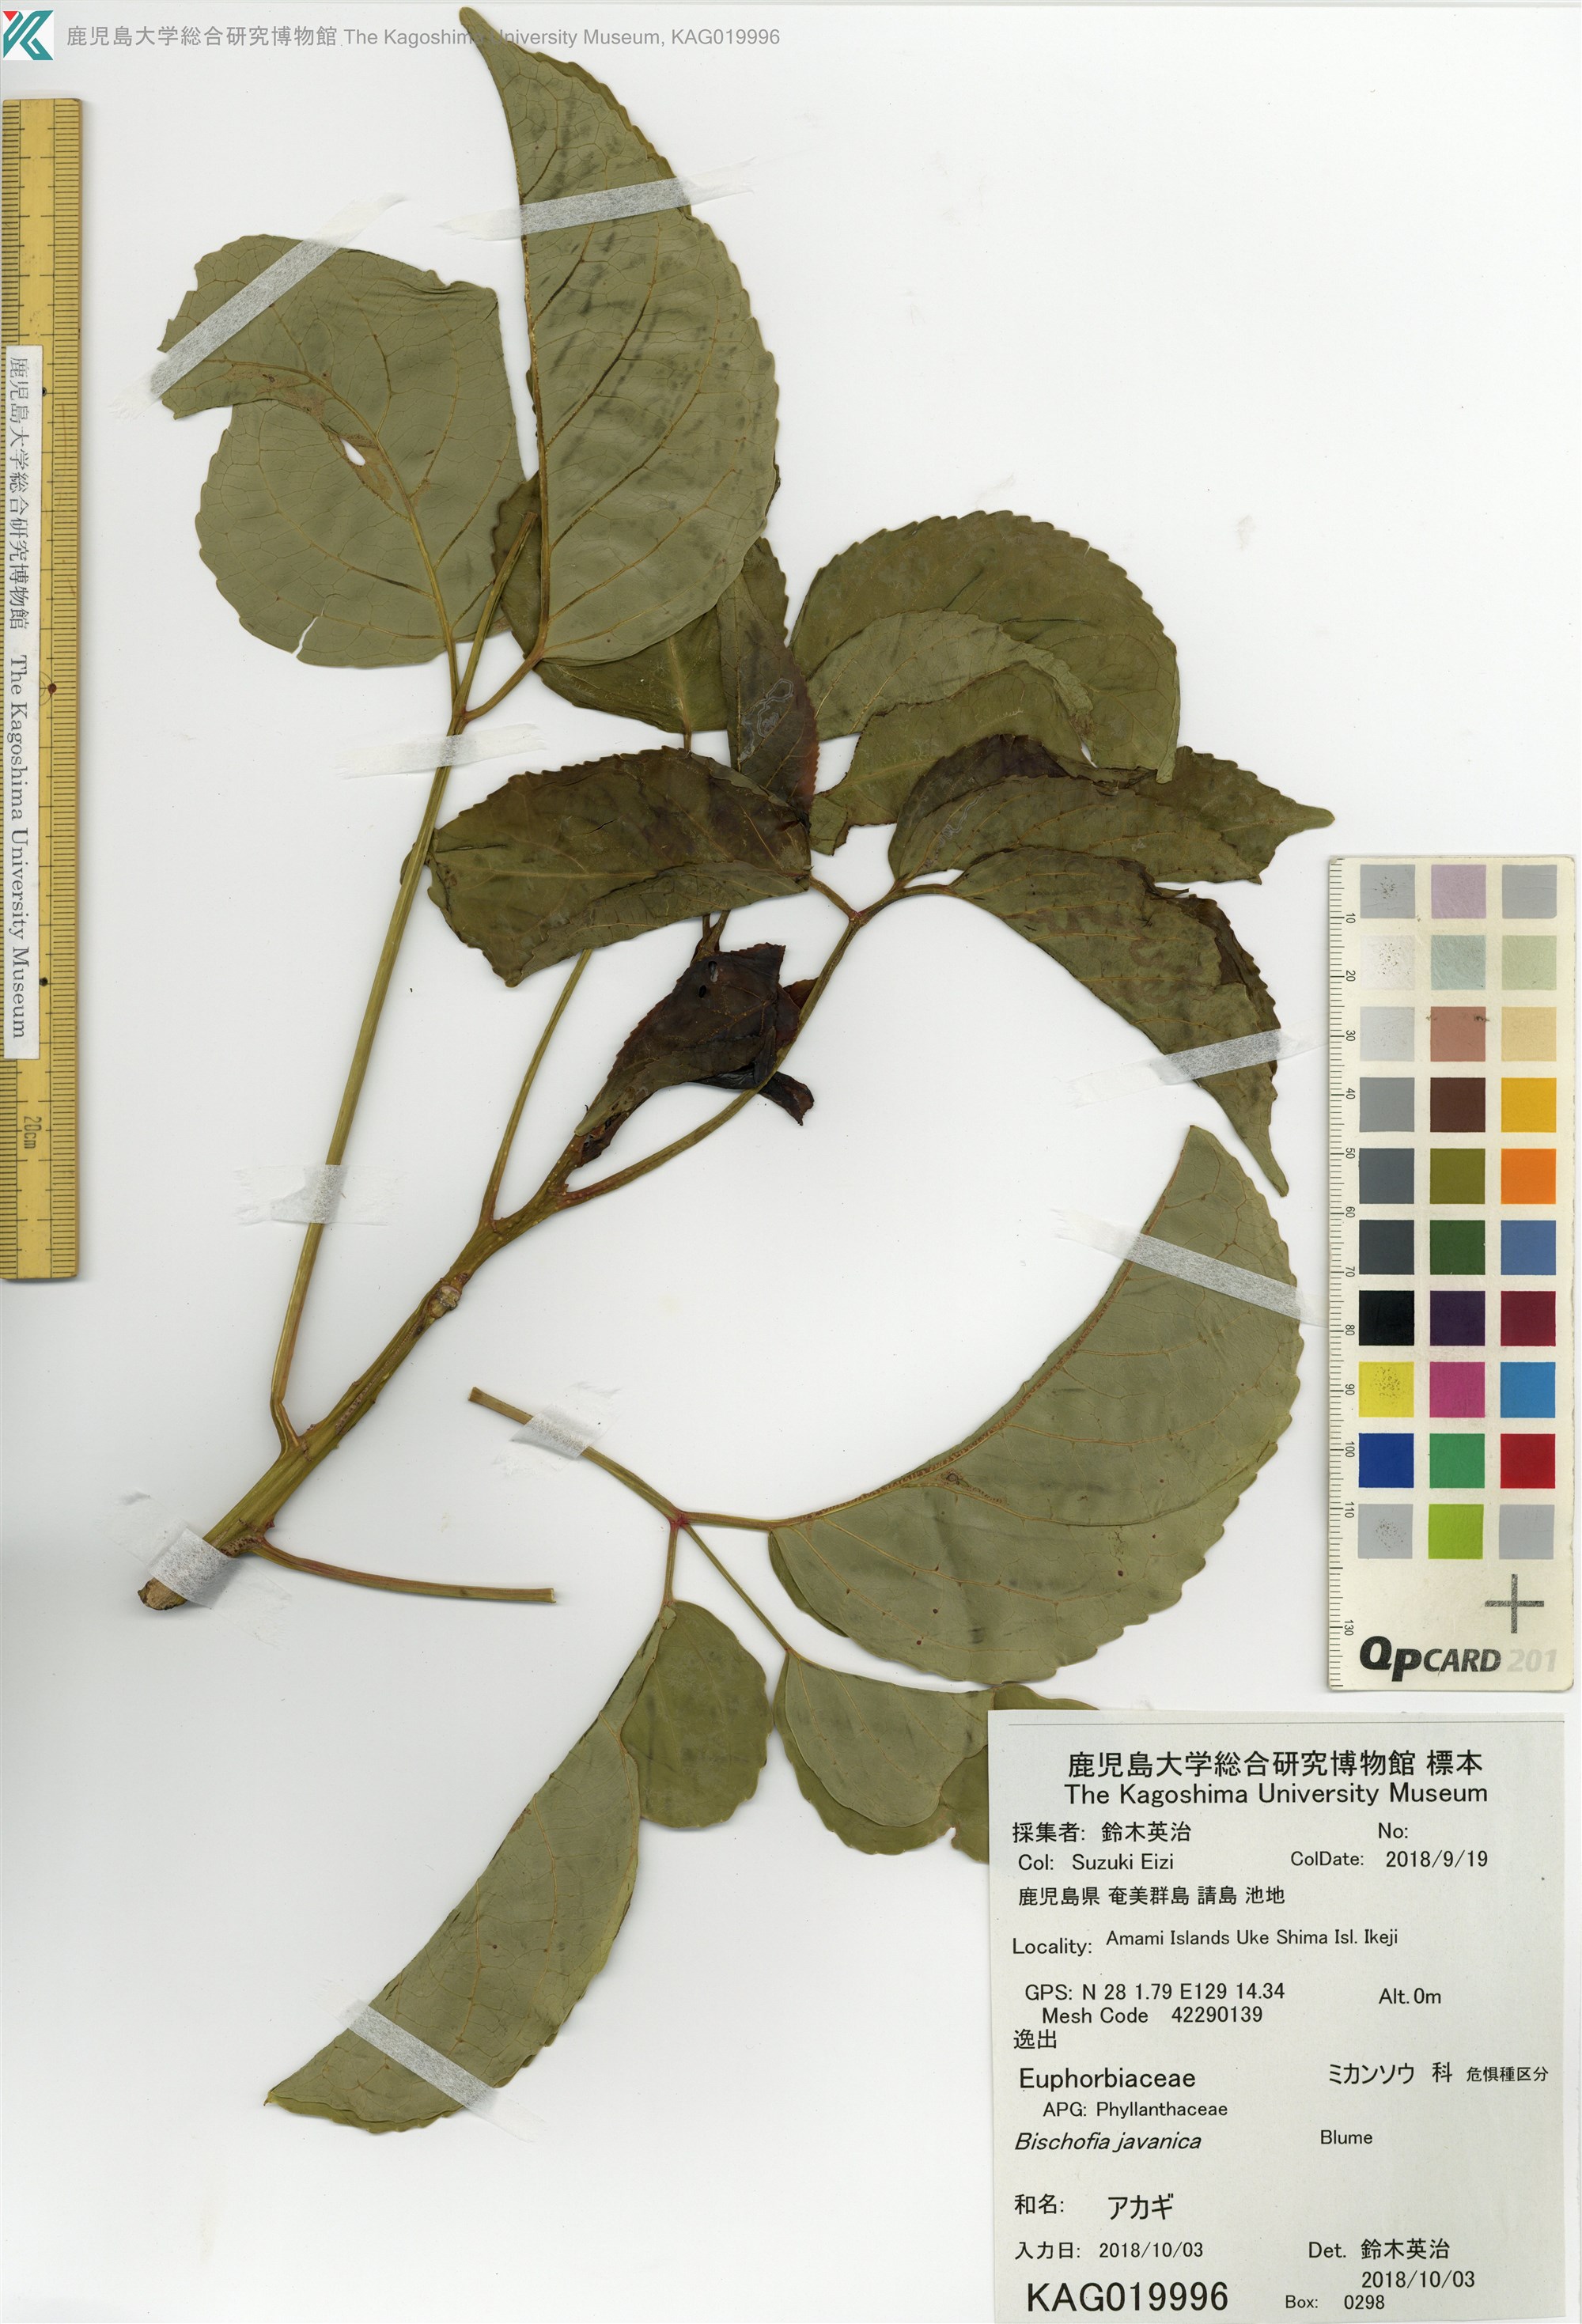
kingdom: Plantae
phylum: Tracheophyta
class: Magnoliopsida
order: Malpighiales
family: Phyllanthaceae
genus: Bischofia
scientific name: Bischofia javanica
